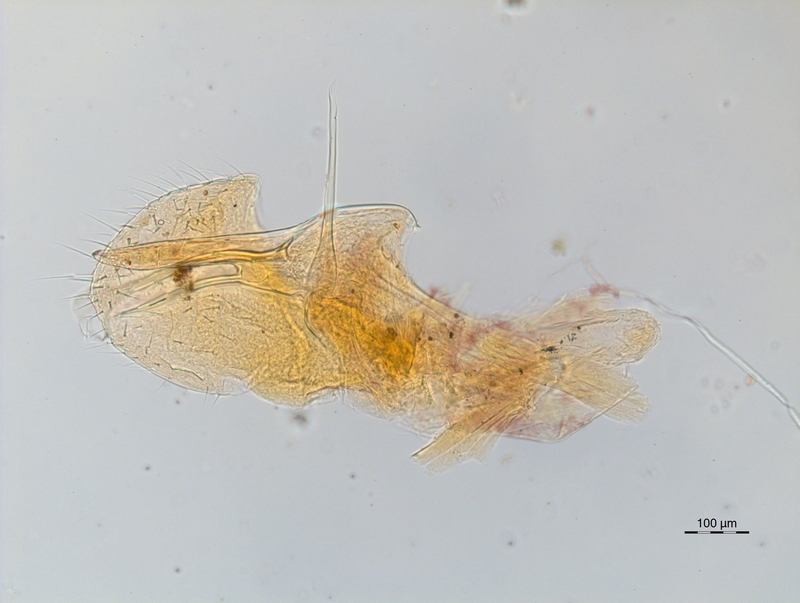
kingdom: Animalia
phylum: Arthropoda
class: Diplopoda
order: Chordeumatida
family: Chordeumatidae
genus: Melogona
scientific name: Melogona gallica
